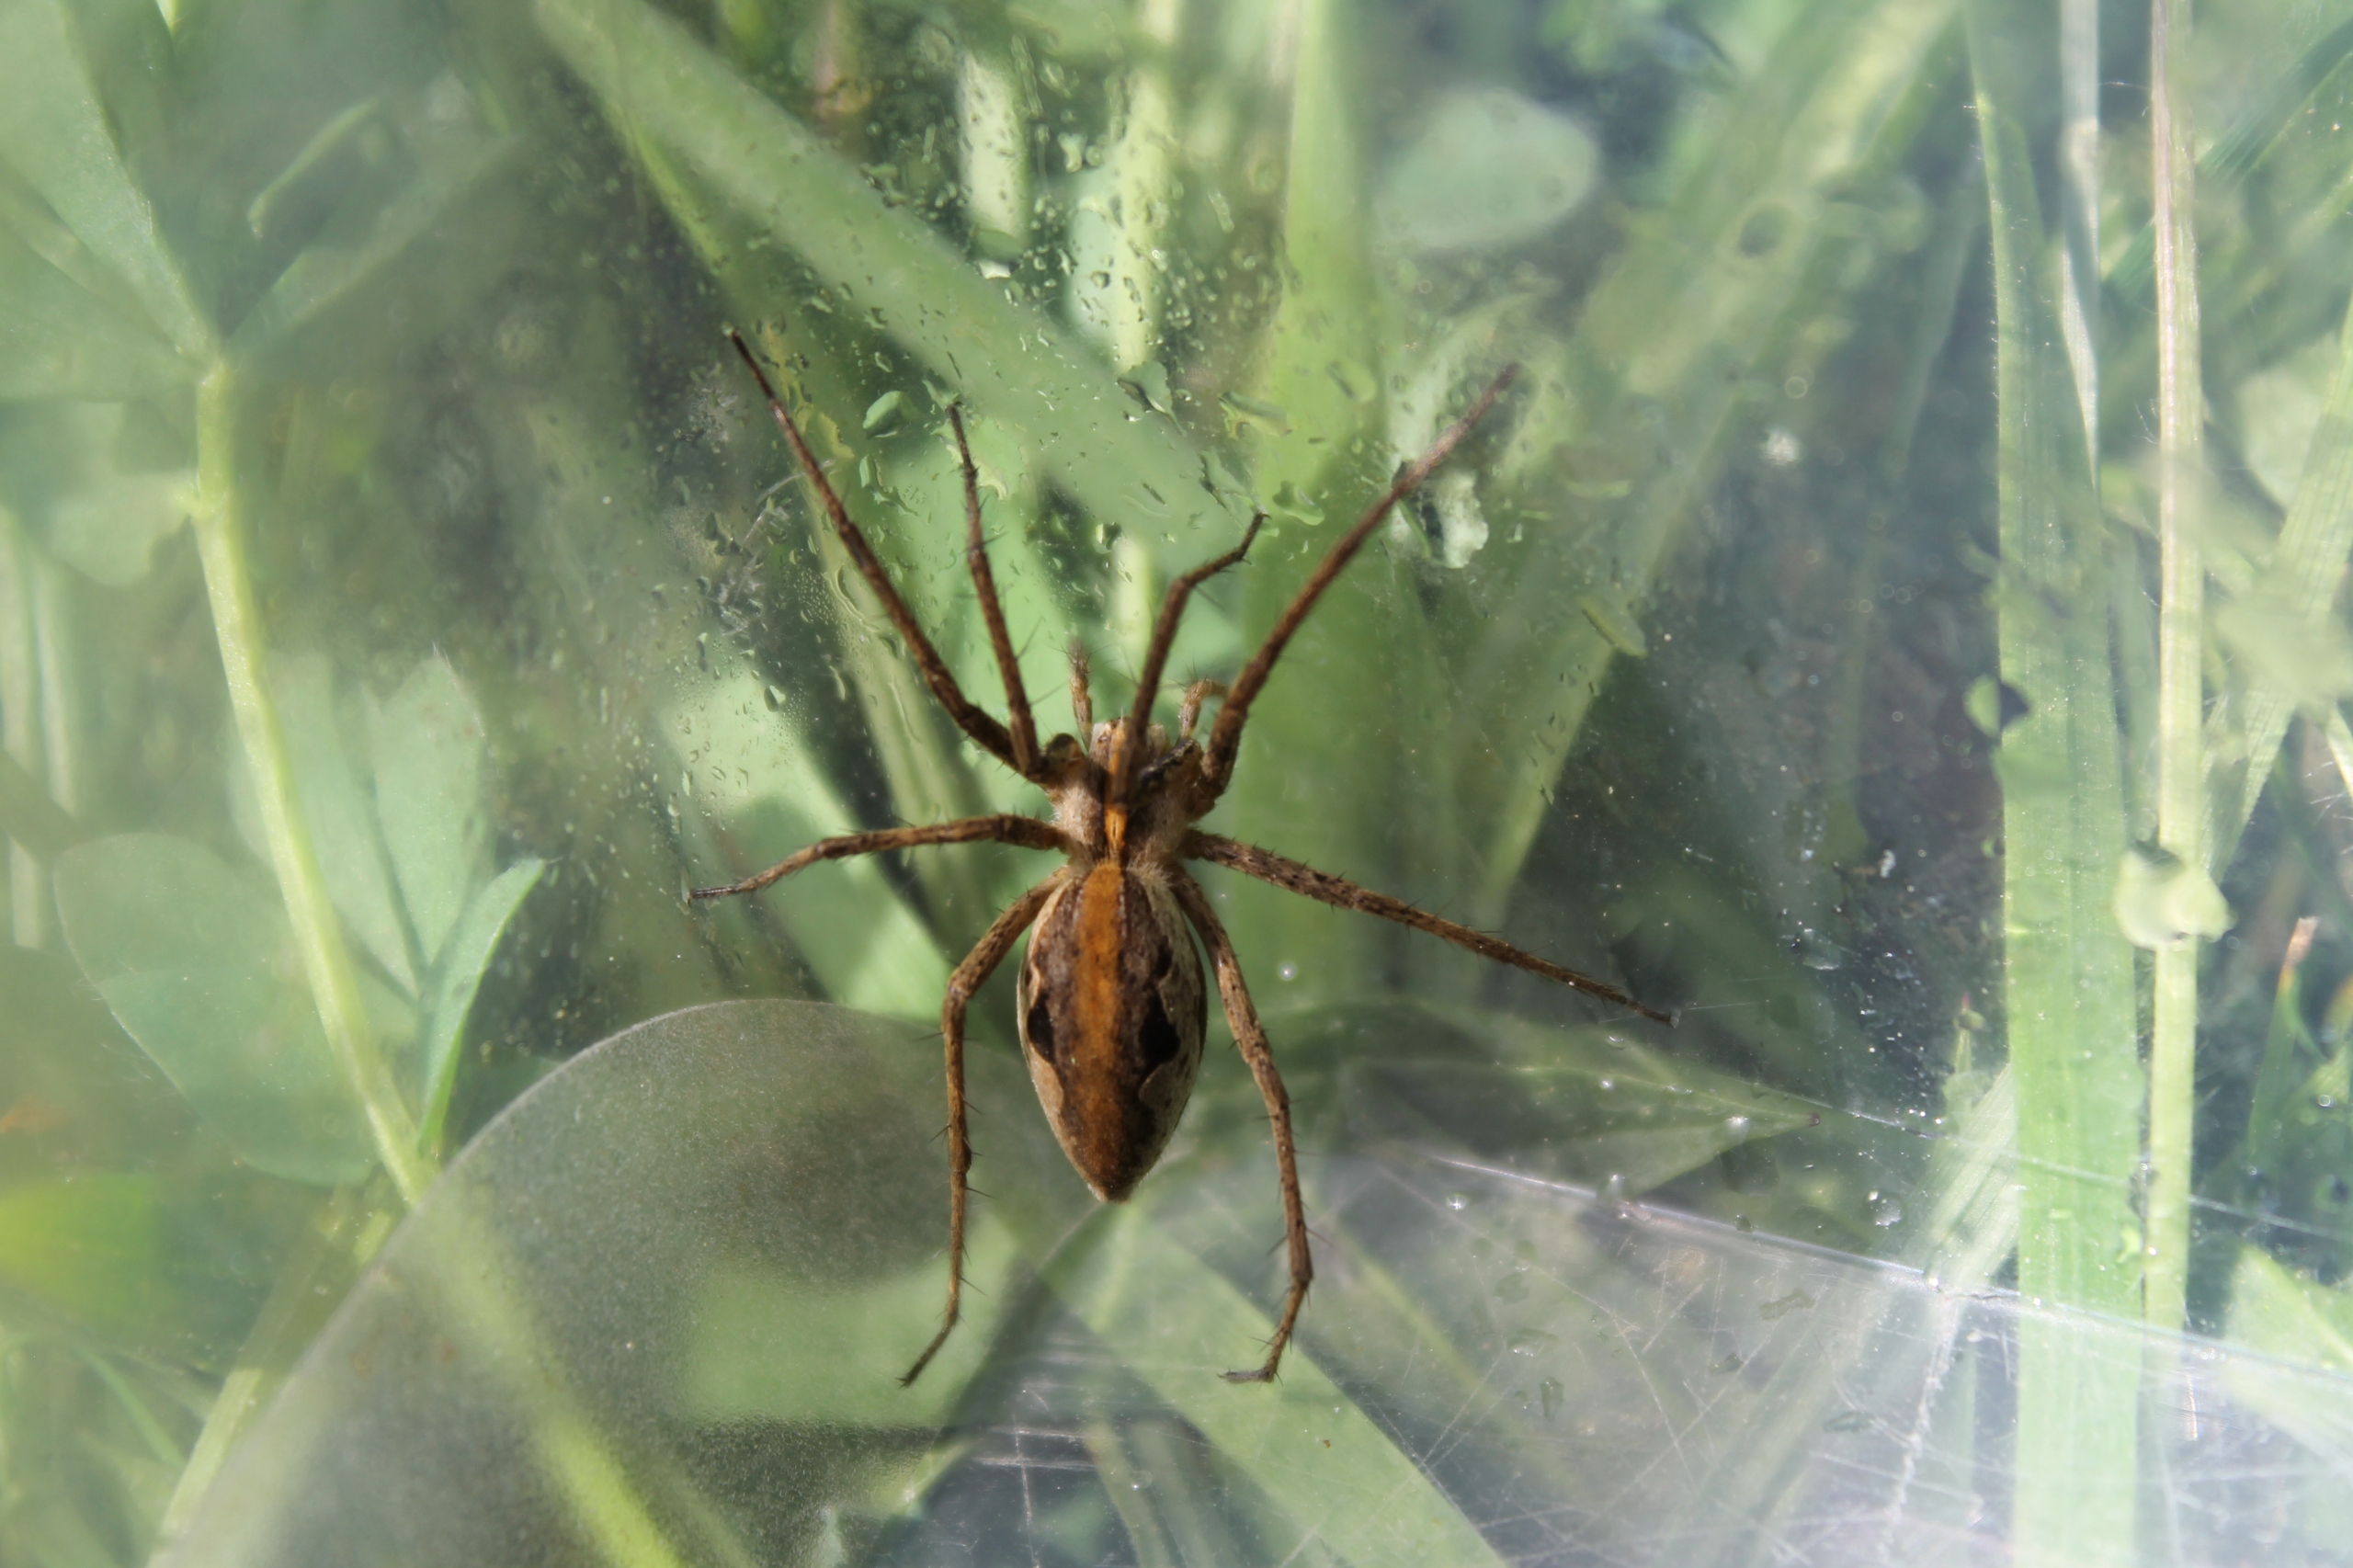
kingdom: Animalia
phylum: Arthropoda
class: Arachnida
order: Araneae
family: Pisauridae
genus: Pisaura
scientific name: Pisaura mirabilis
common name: Almindelig rovedderkop
